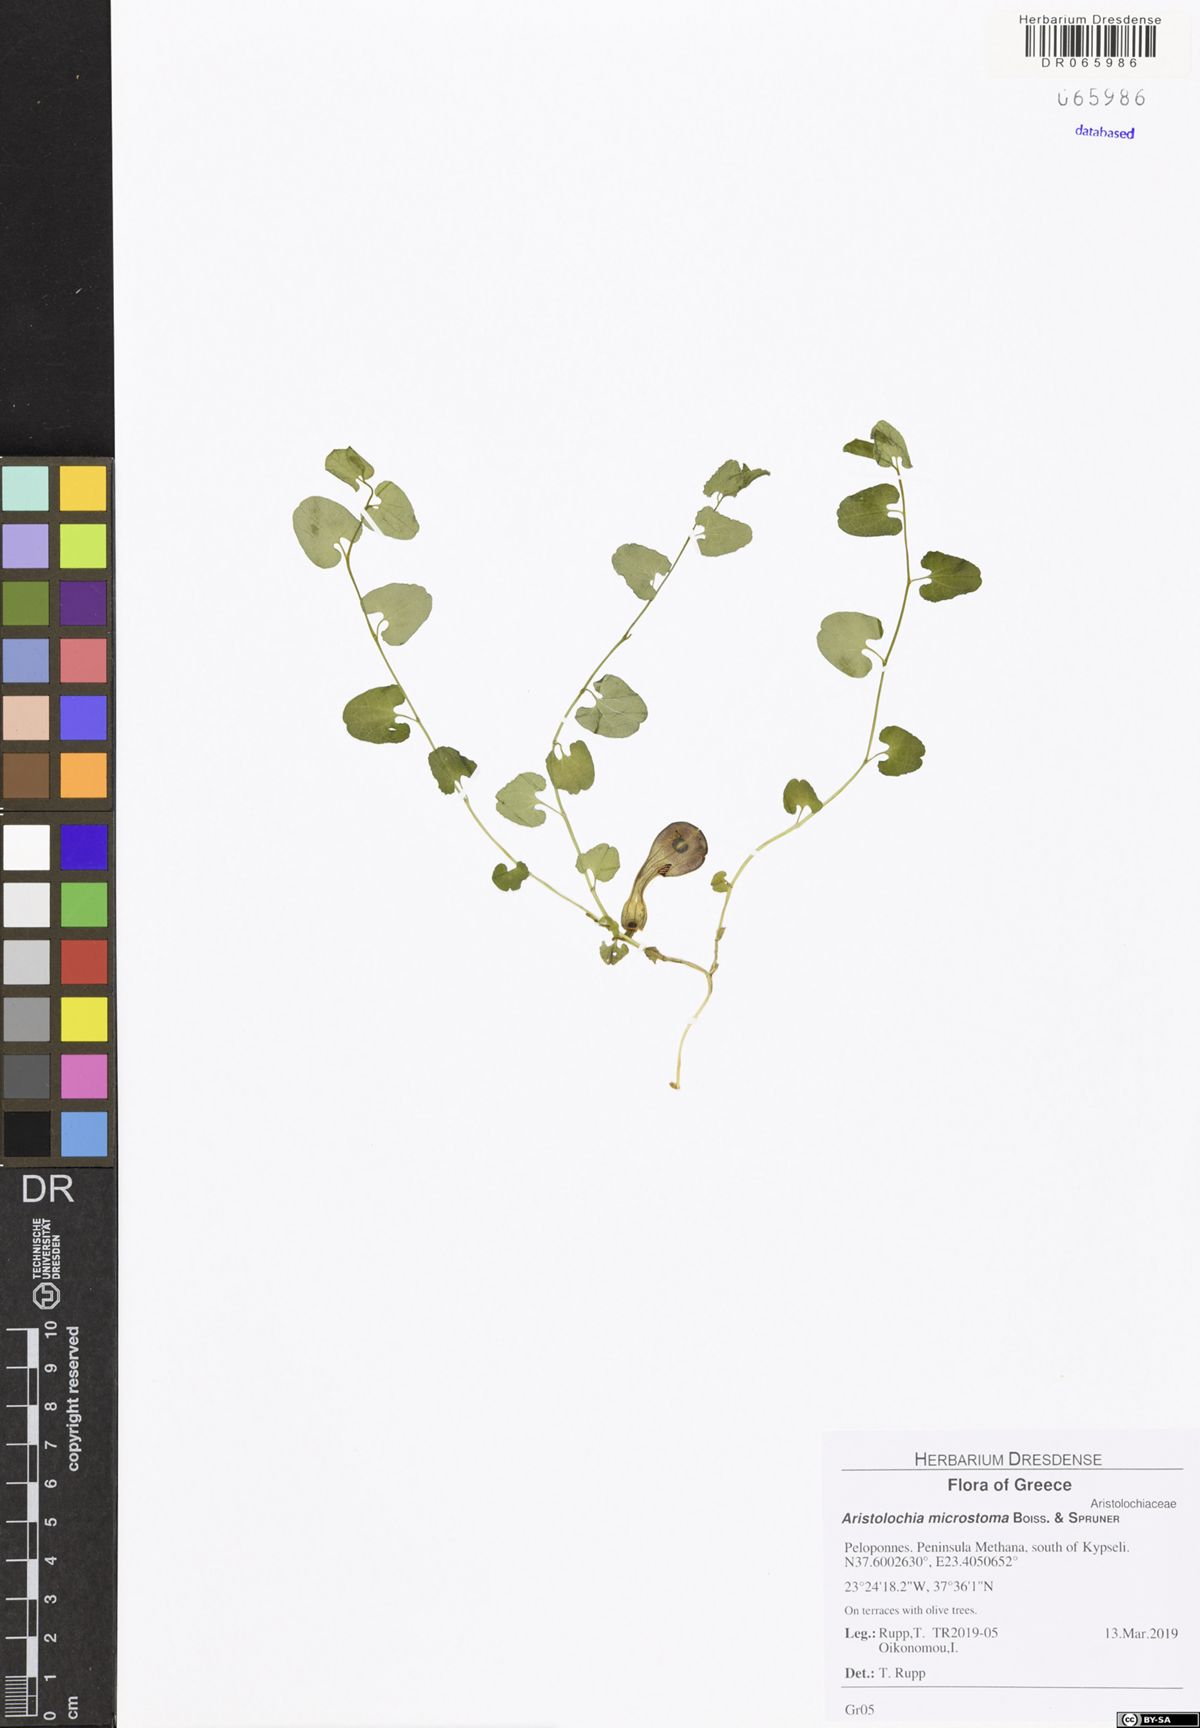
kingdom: Plantae
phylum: Tracheophyta
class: Magnoliopsida
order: Piperales
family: Aristolochiaceae
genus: Aristolochia
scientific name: Aristolochia microstoma
